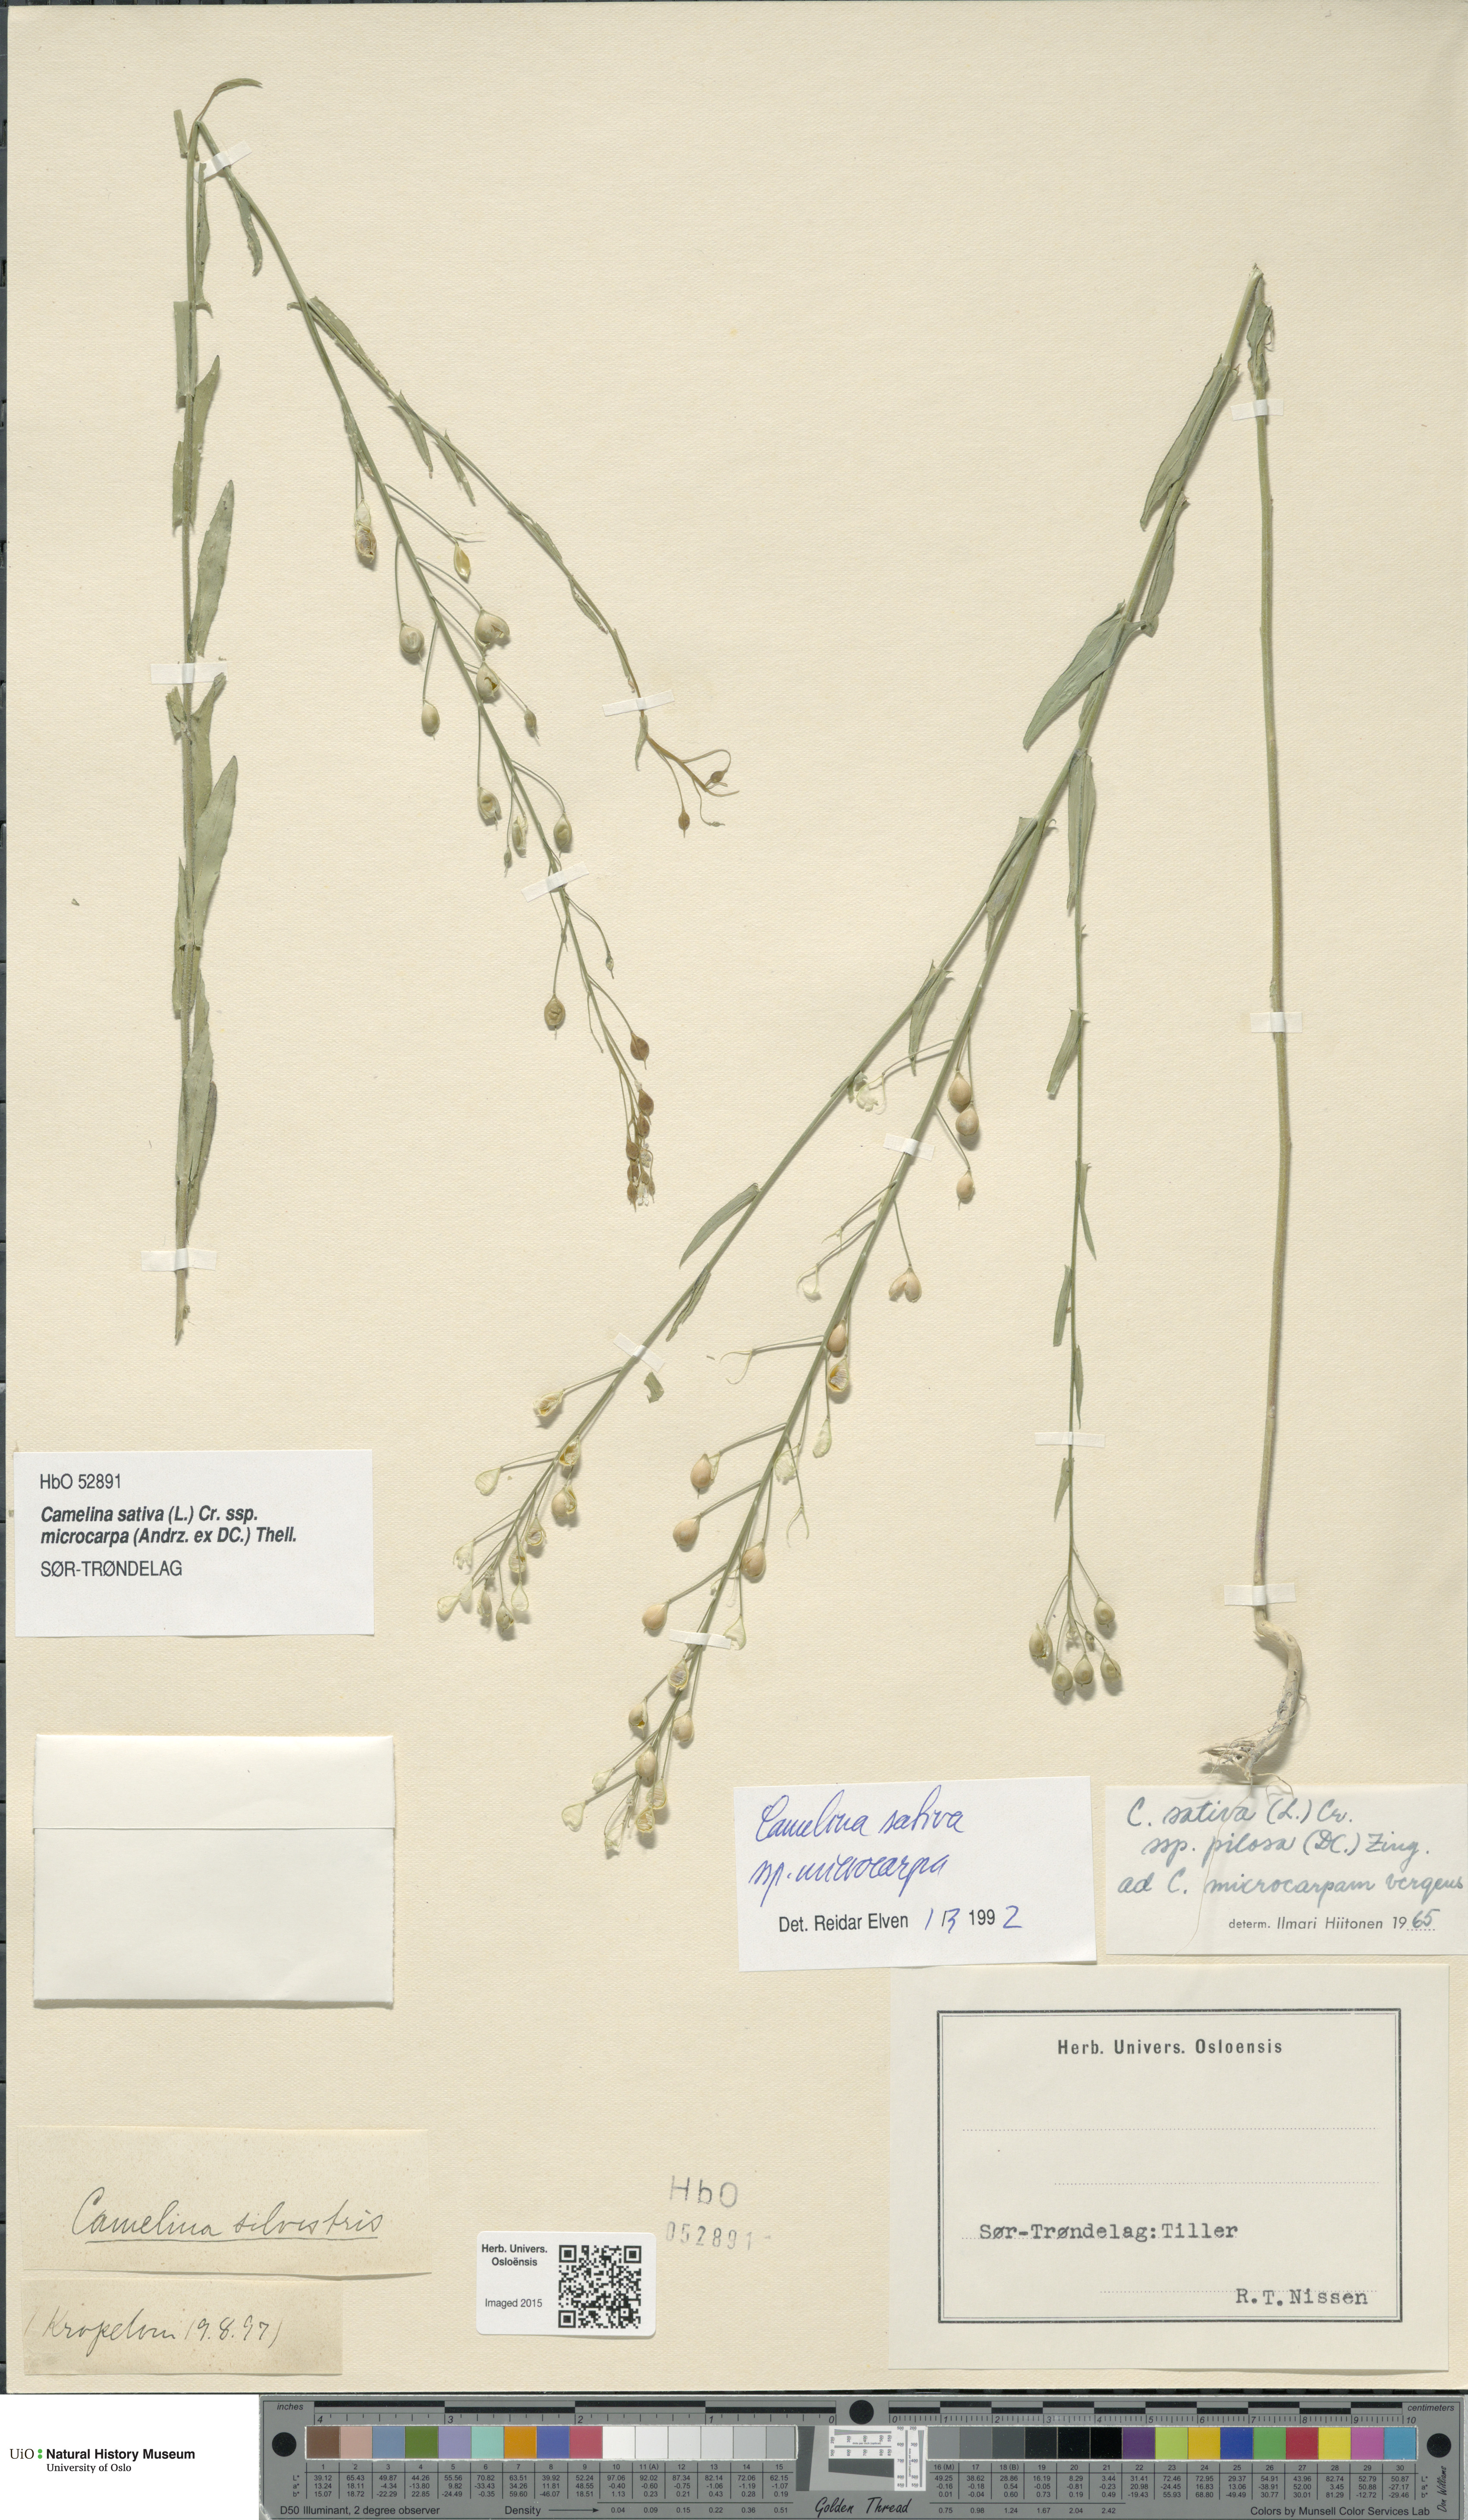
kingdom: Plantae
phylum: Tracheophyta
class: Magnoliopsida
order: Brassicales
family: Brassicaceae
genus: Camelina
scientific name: Camelina sativa
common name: Gold-of-pleasure
